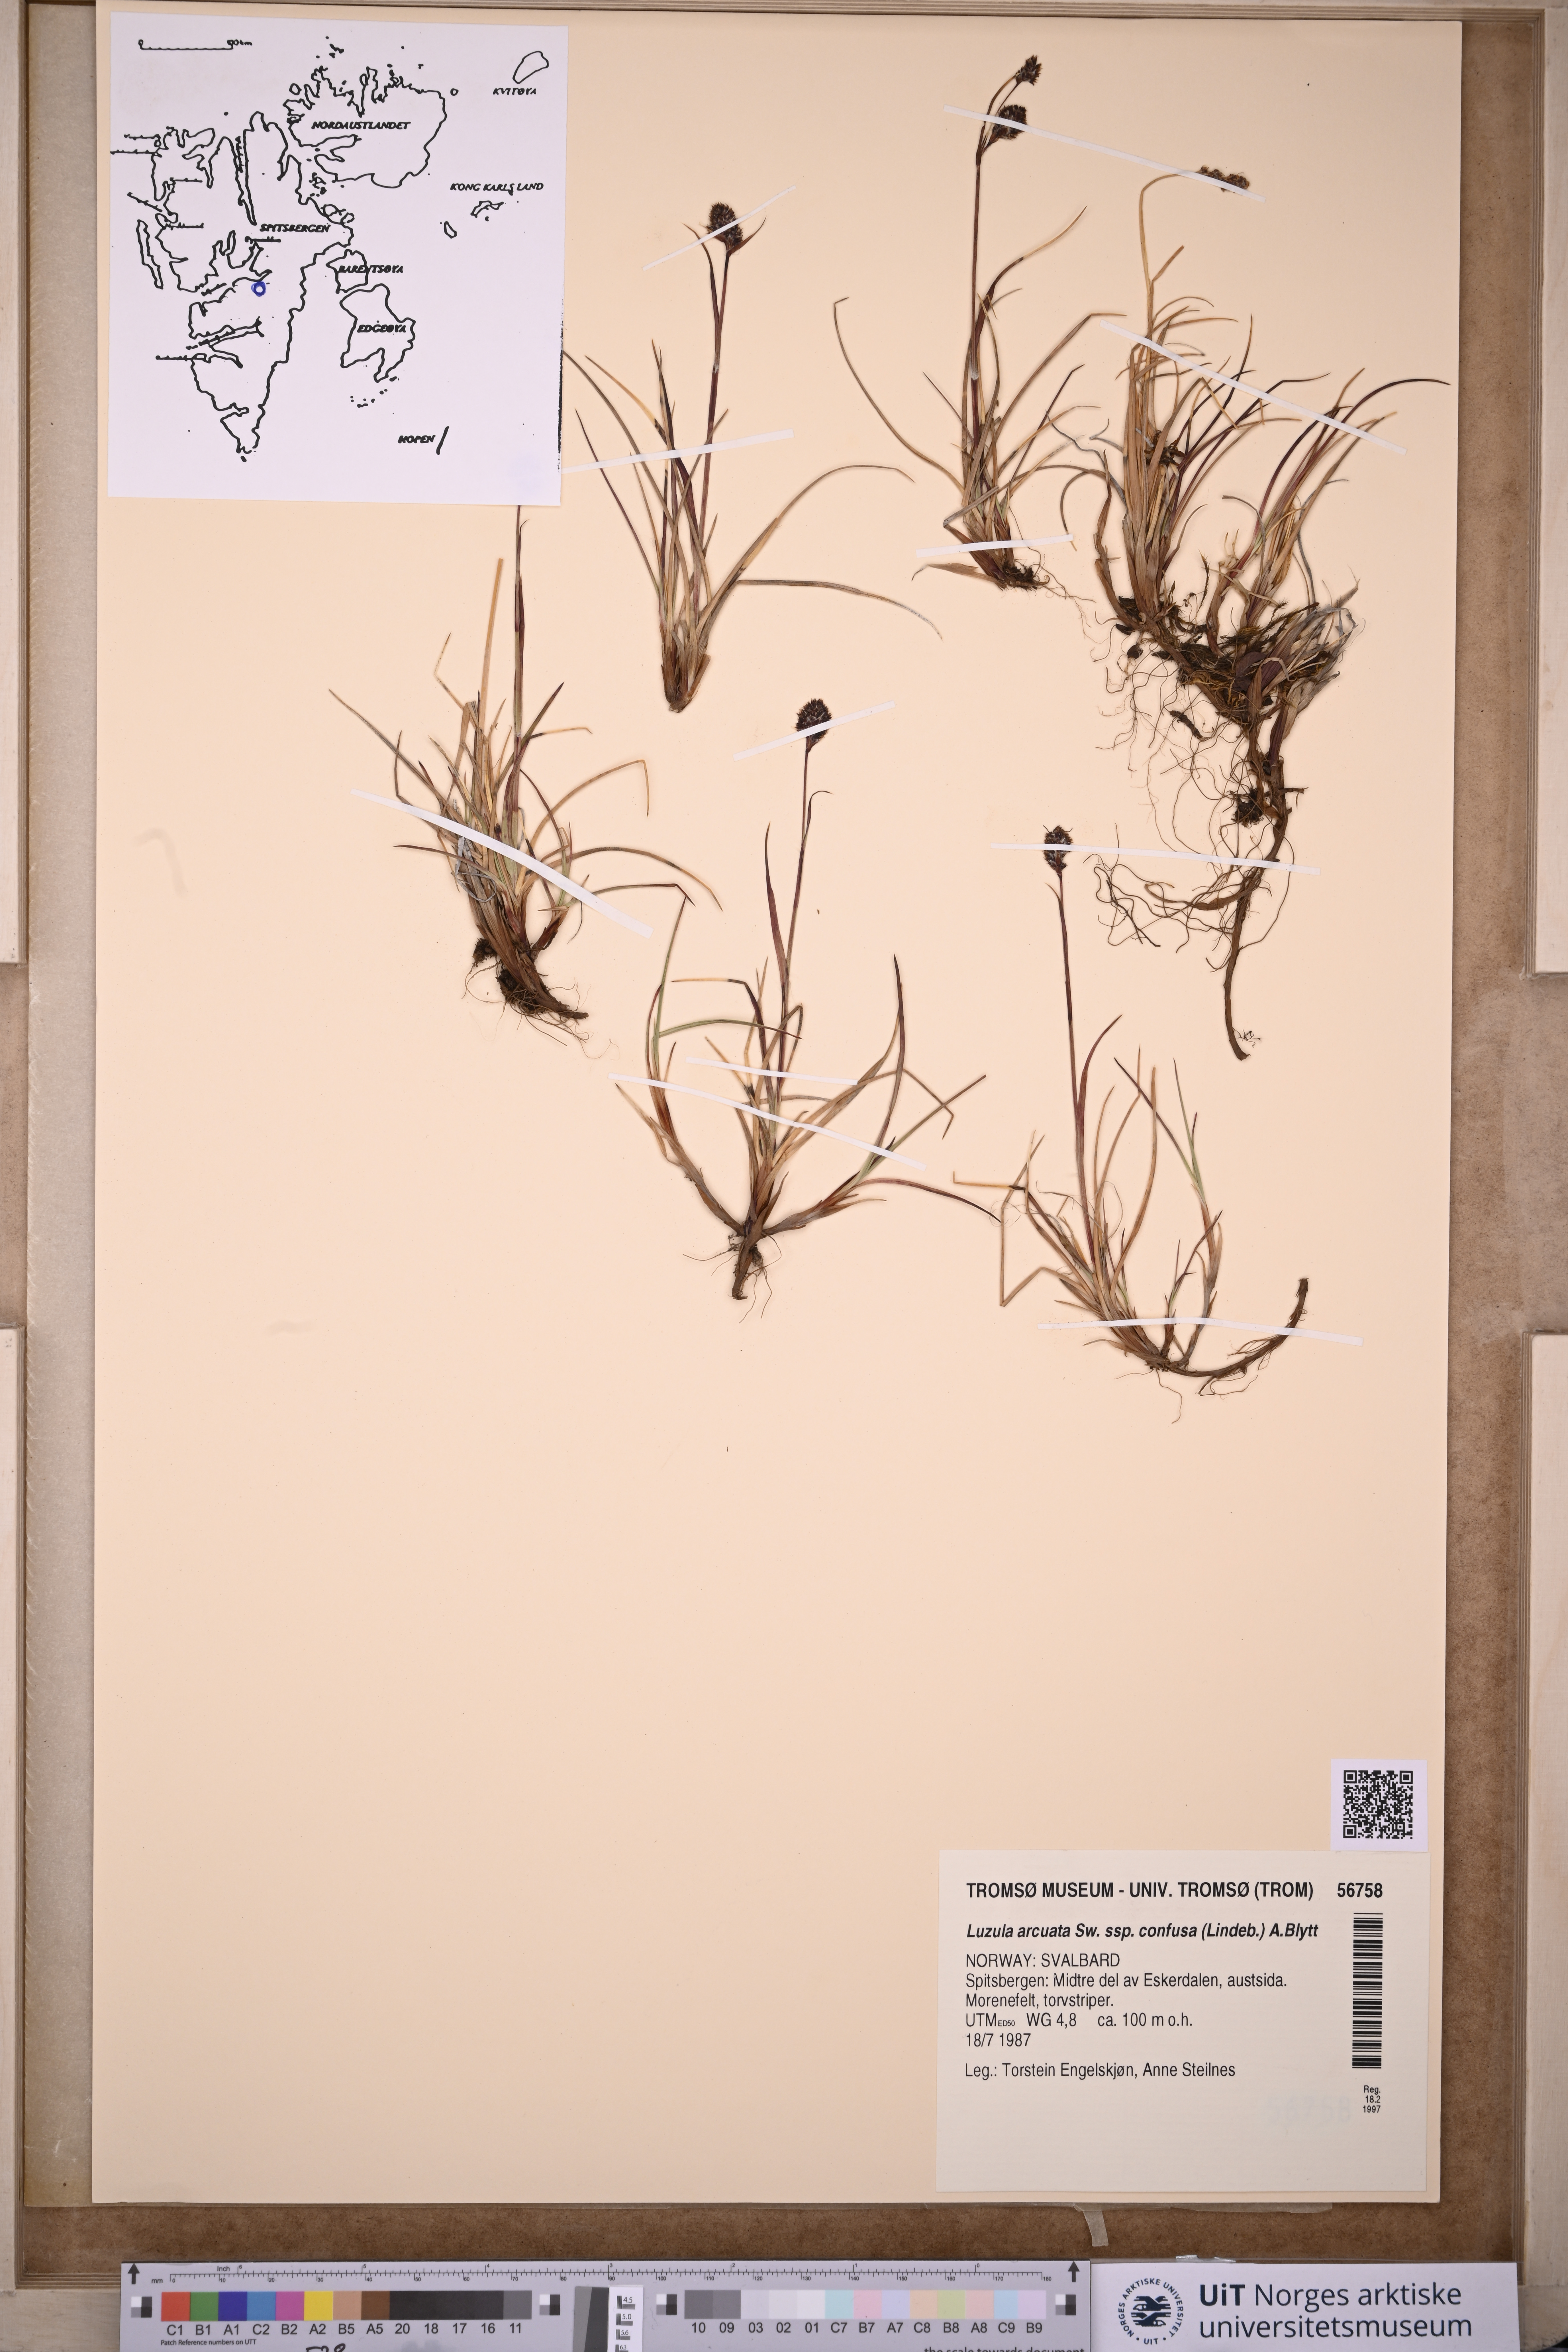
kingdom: Plantae
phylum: Tracheophyta
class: Liliopsida
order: Poales
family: Juncaceae
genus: Luzula
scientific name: Luzula confusa
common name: Northern wood rush
